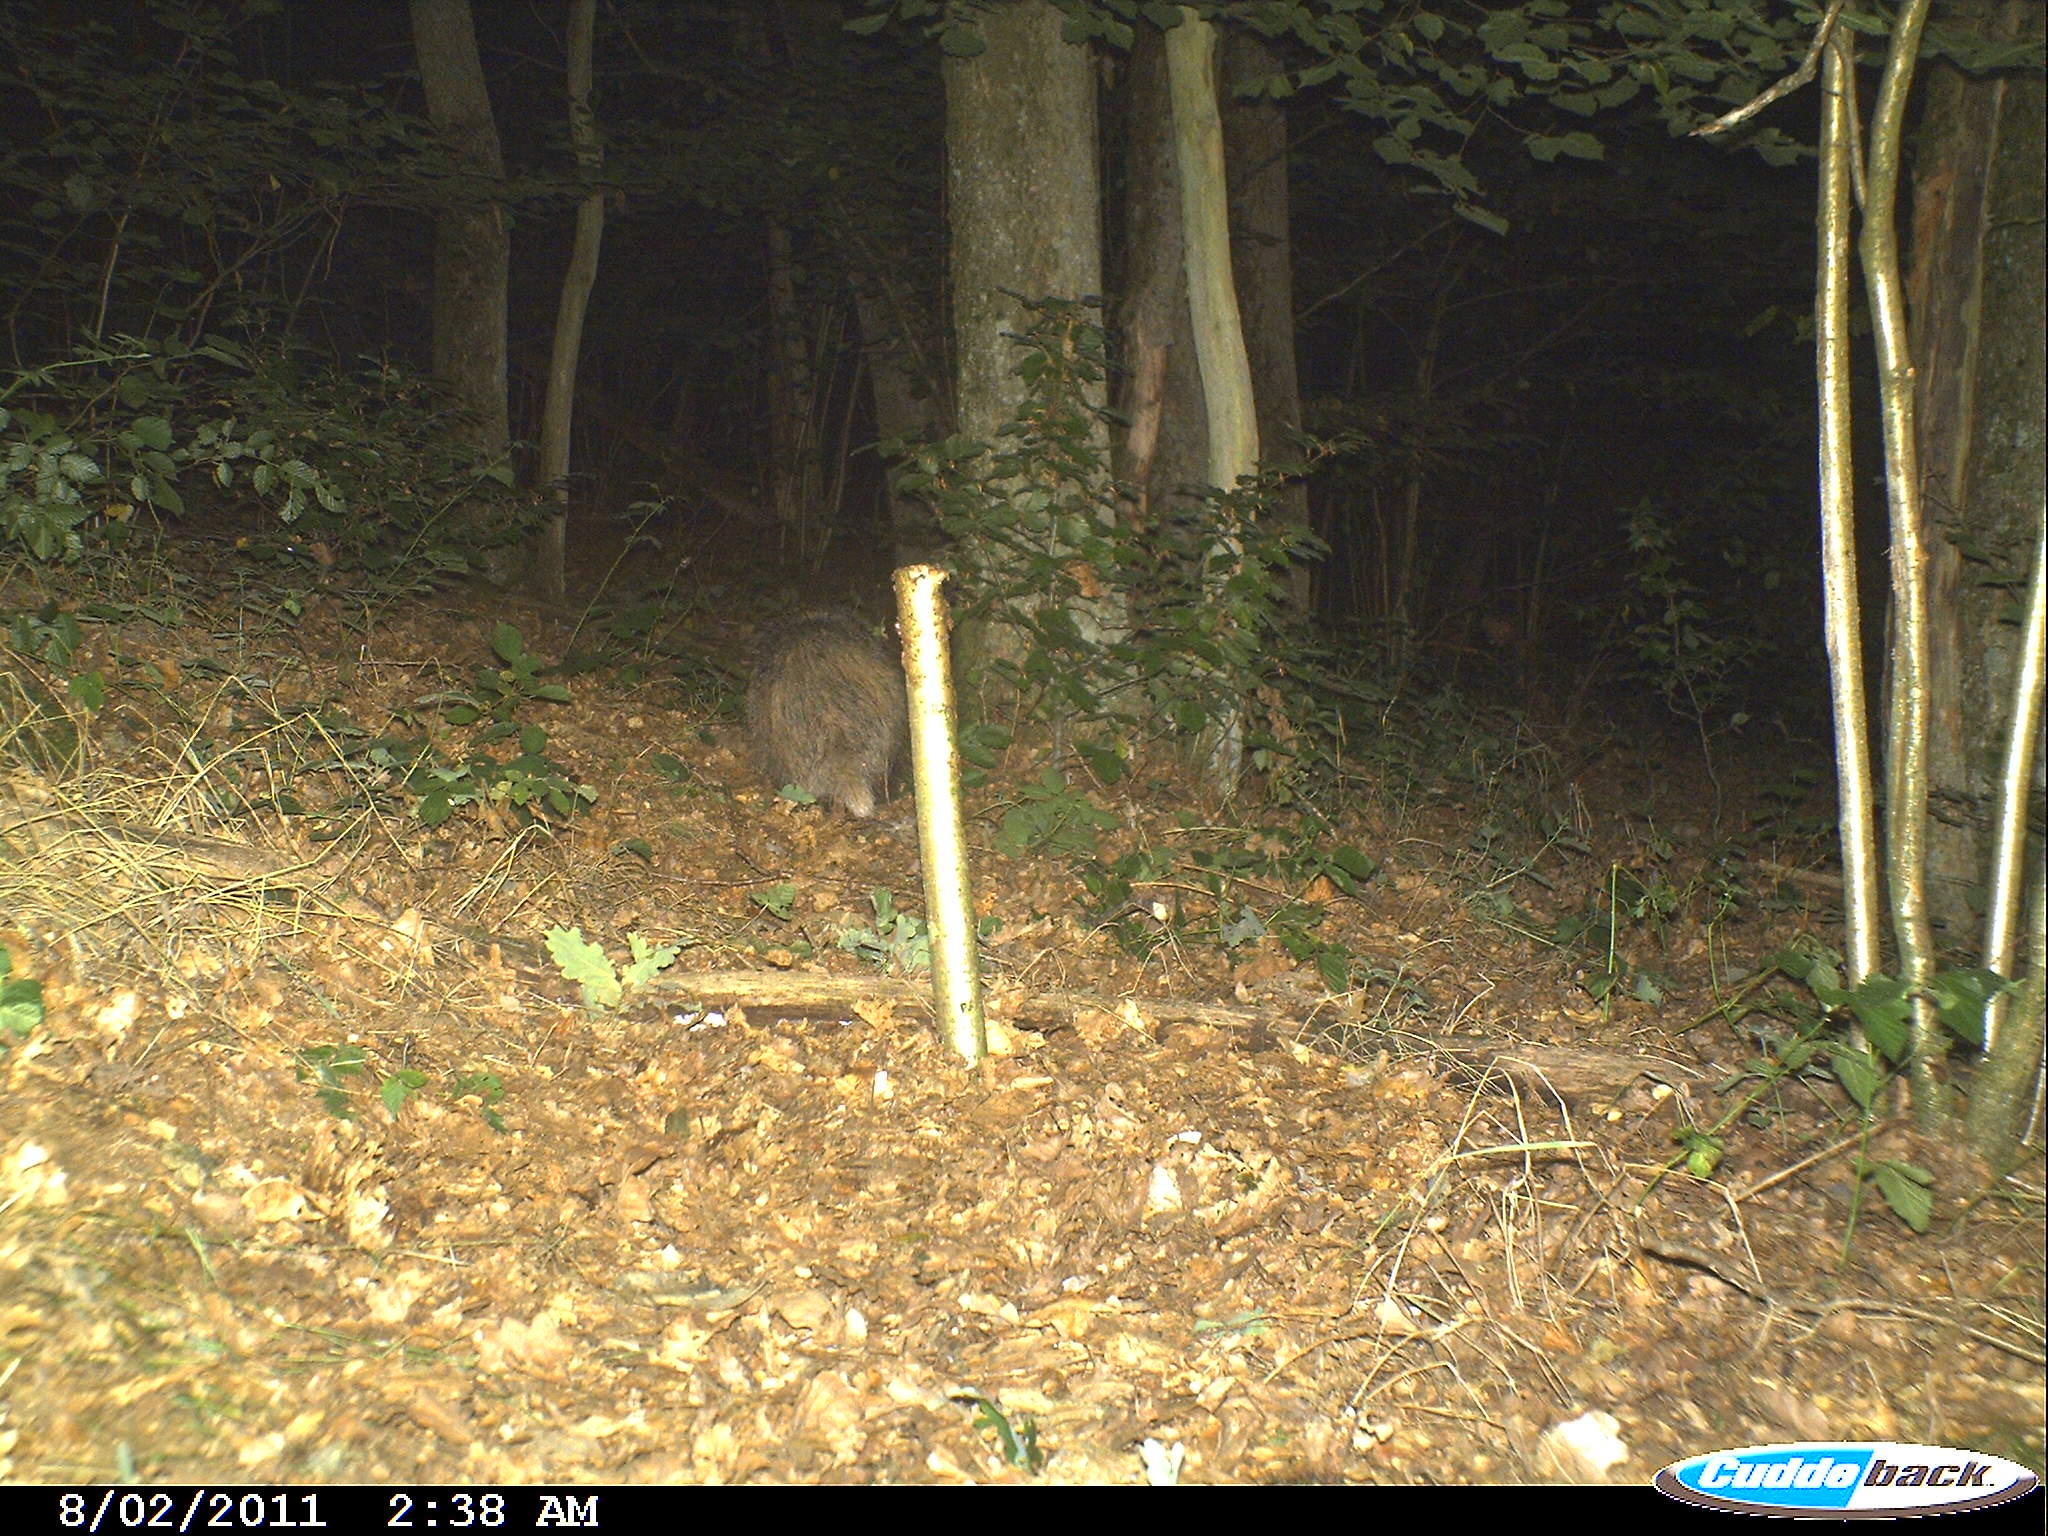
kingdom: Animalia
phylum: Chordata
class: Mammalia
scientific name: Mammalia
